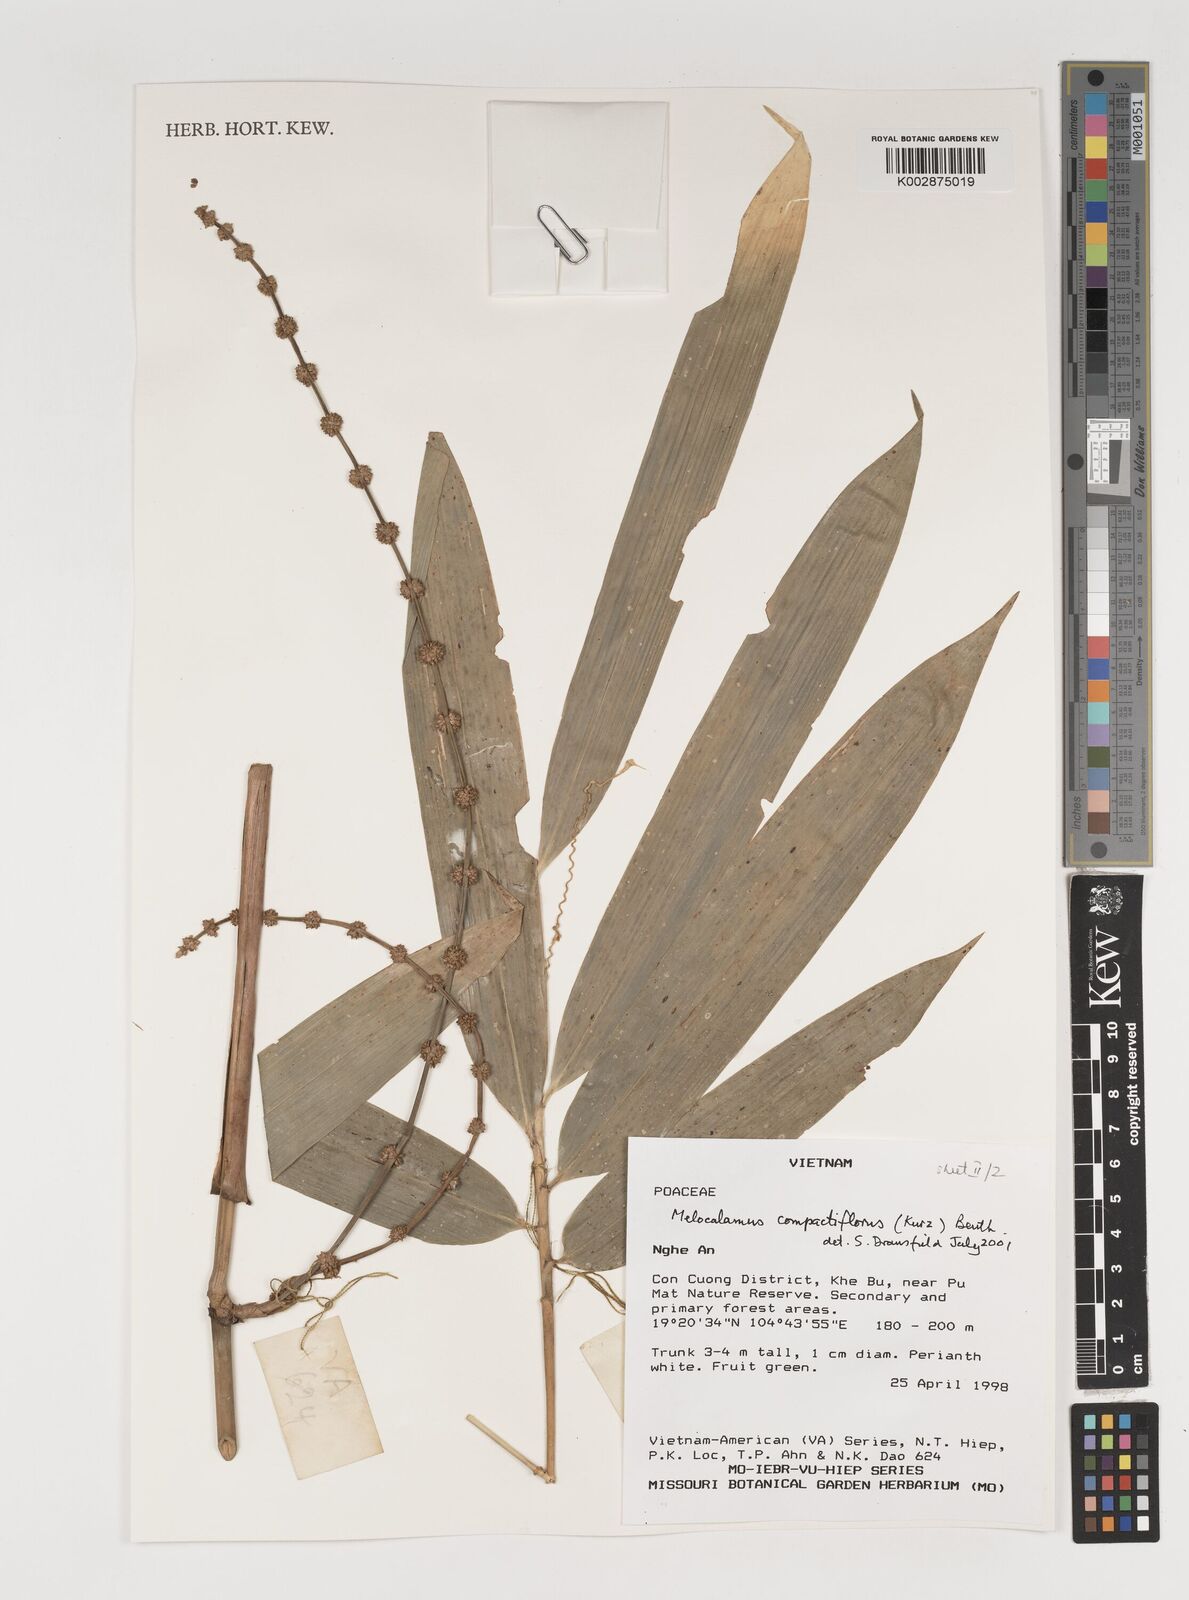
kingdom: Plantae
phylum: Tracheophyta
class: Liliopsida
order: Poales
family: Poaceae
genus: Melocalamus
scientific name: Melocalamus compactiflorus
